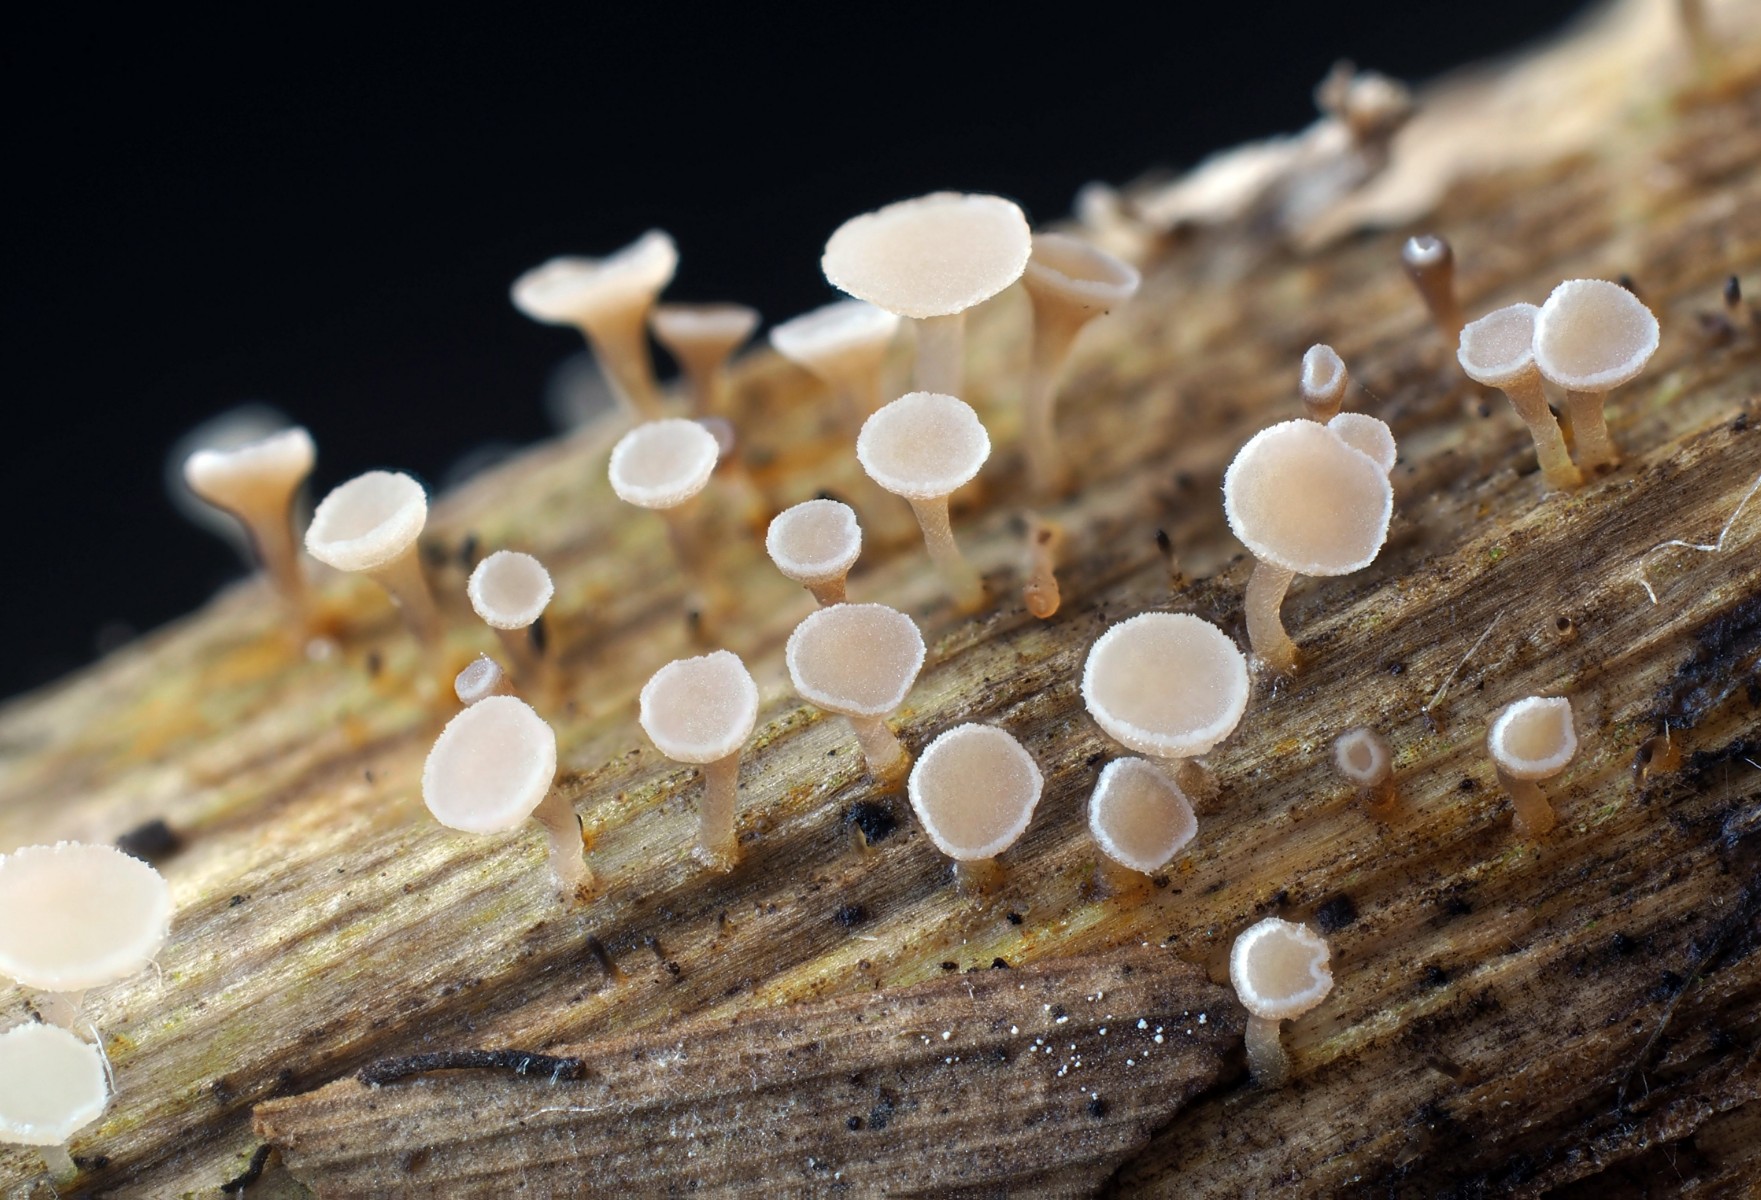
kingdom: Fungi
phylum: Ascomycota
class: Leotiomycetes
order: Helotiales
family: Helotiaceae
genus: Cyathicula
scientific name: Cyathicula cyathoidea
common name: pokal-stilkskive
